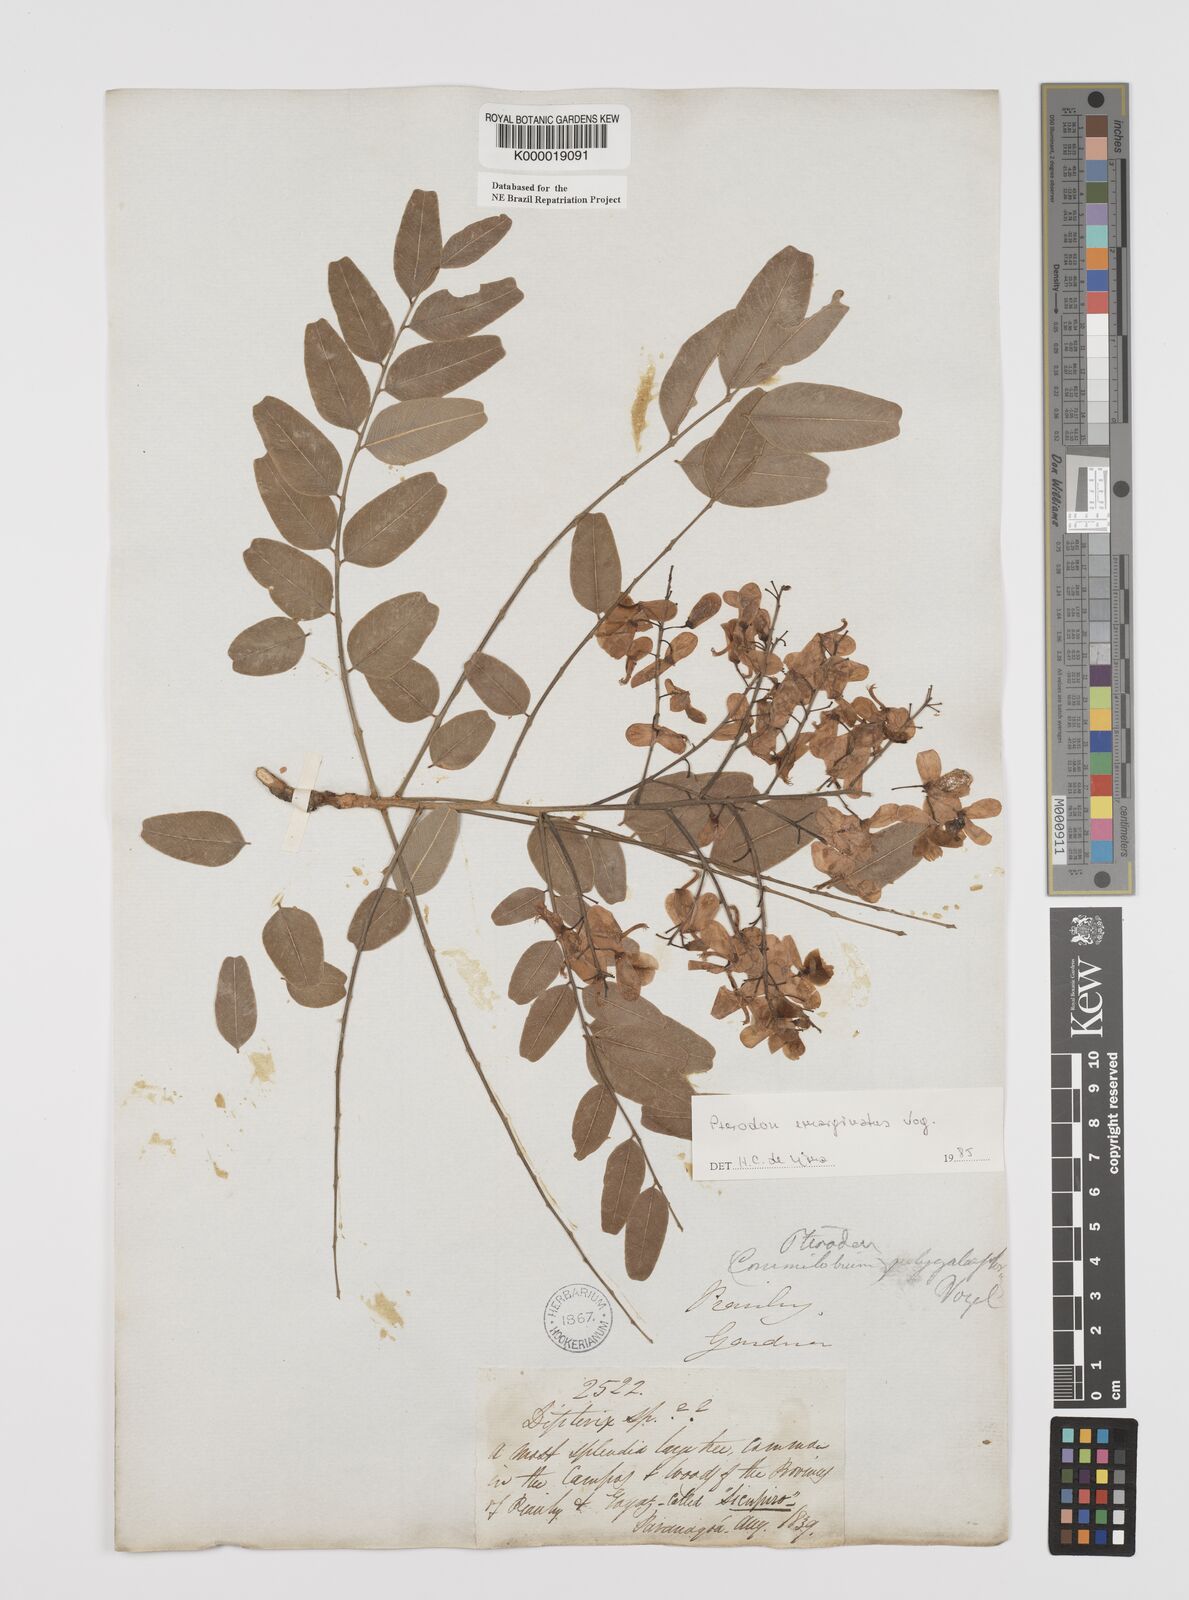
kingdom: Plantae
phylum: Tracheophyta
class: Magnoliopsida
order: Fabales
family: Fabaceae
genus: Pterodon
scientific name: Pterodon emarginatus
